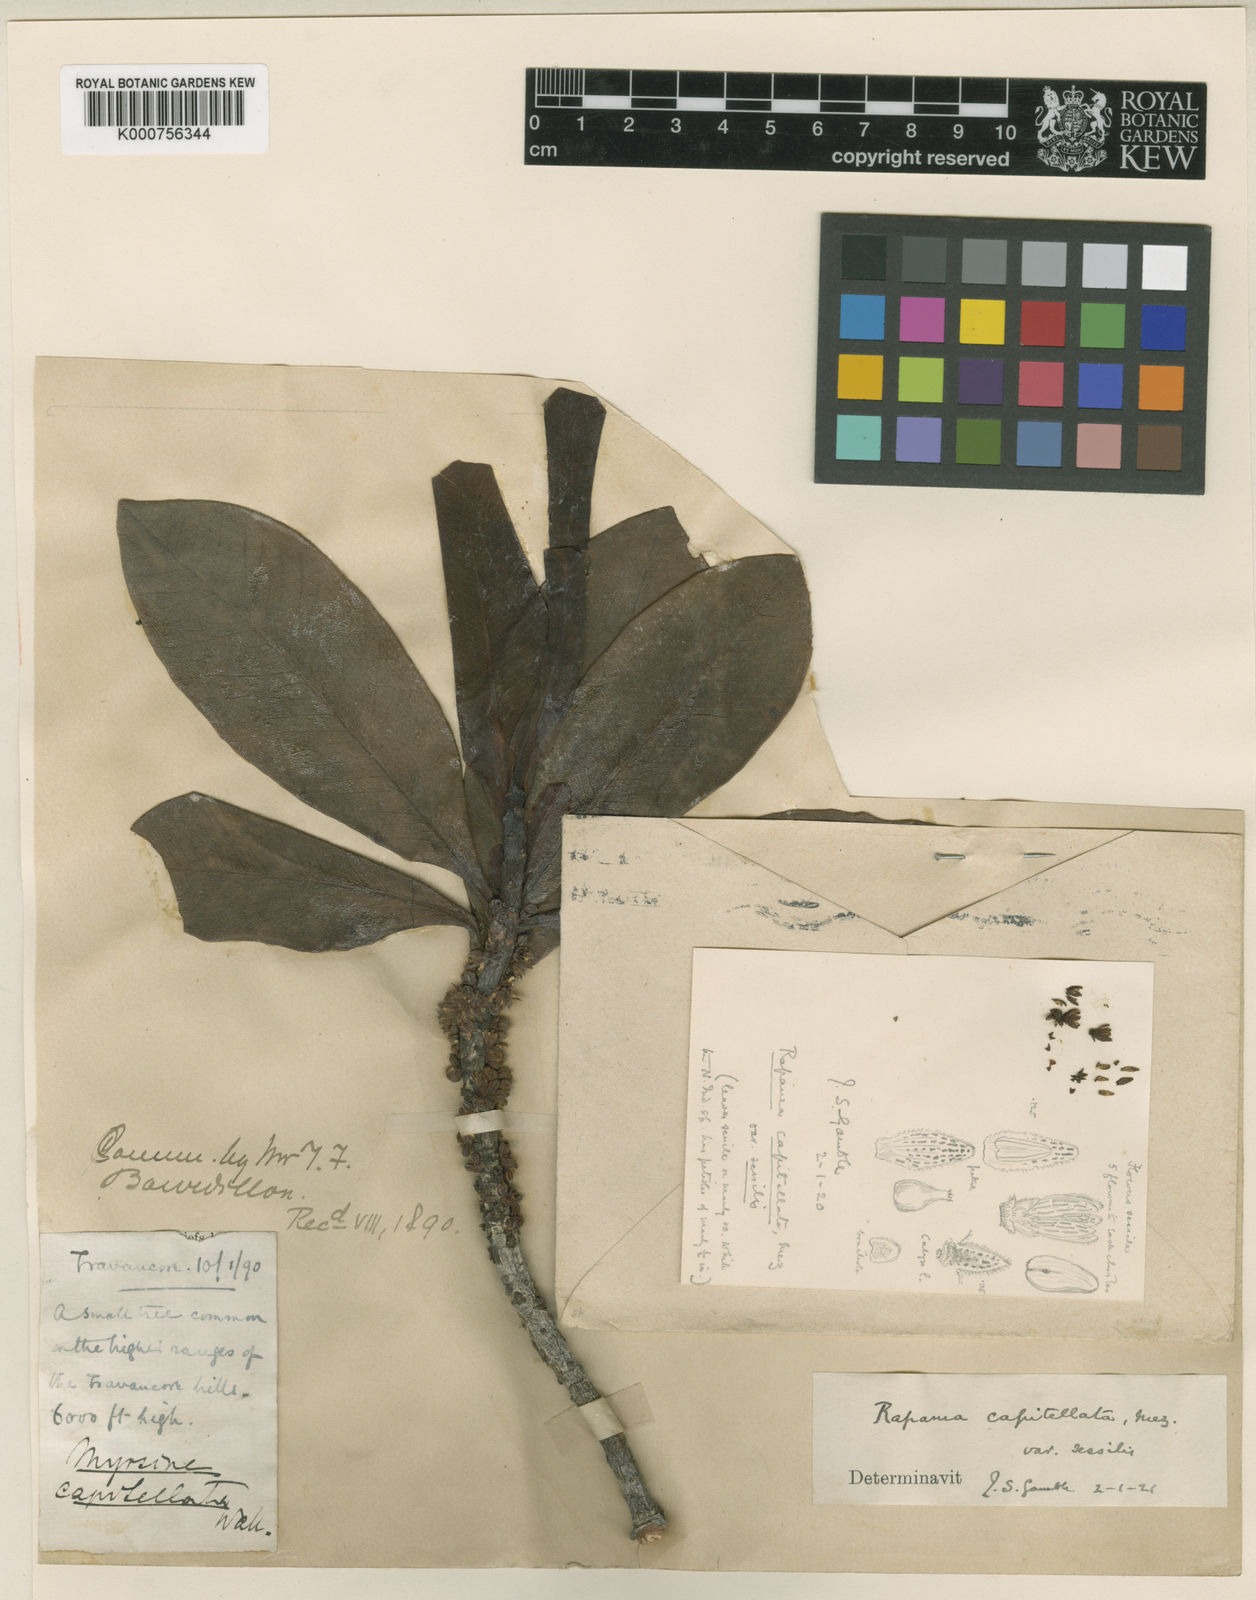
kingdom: Plantae
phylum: Tracheophyta
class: Magnoliopsida
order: Ericales
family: Primulaceae
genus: Myrsine
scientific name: Myrsine capitellata
